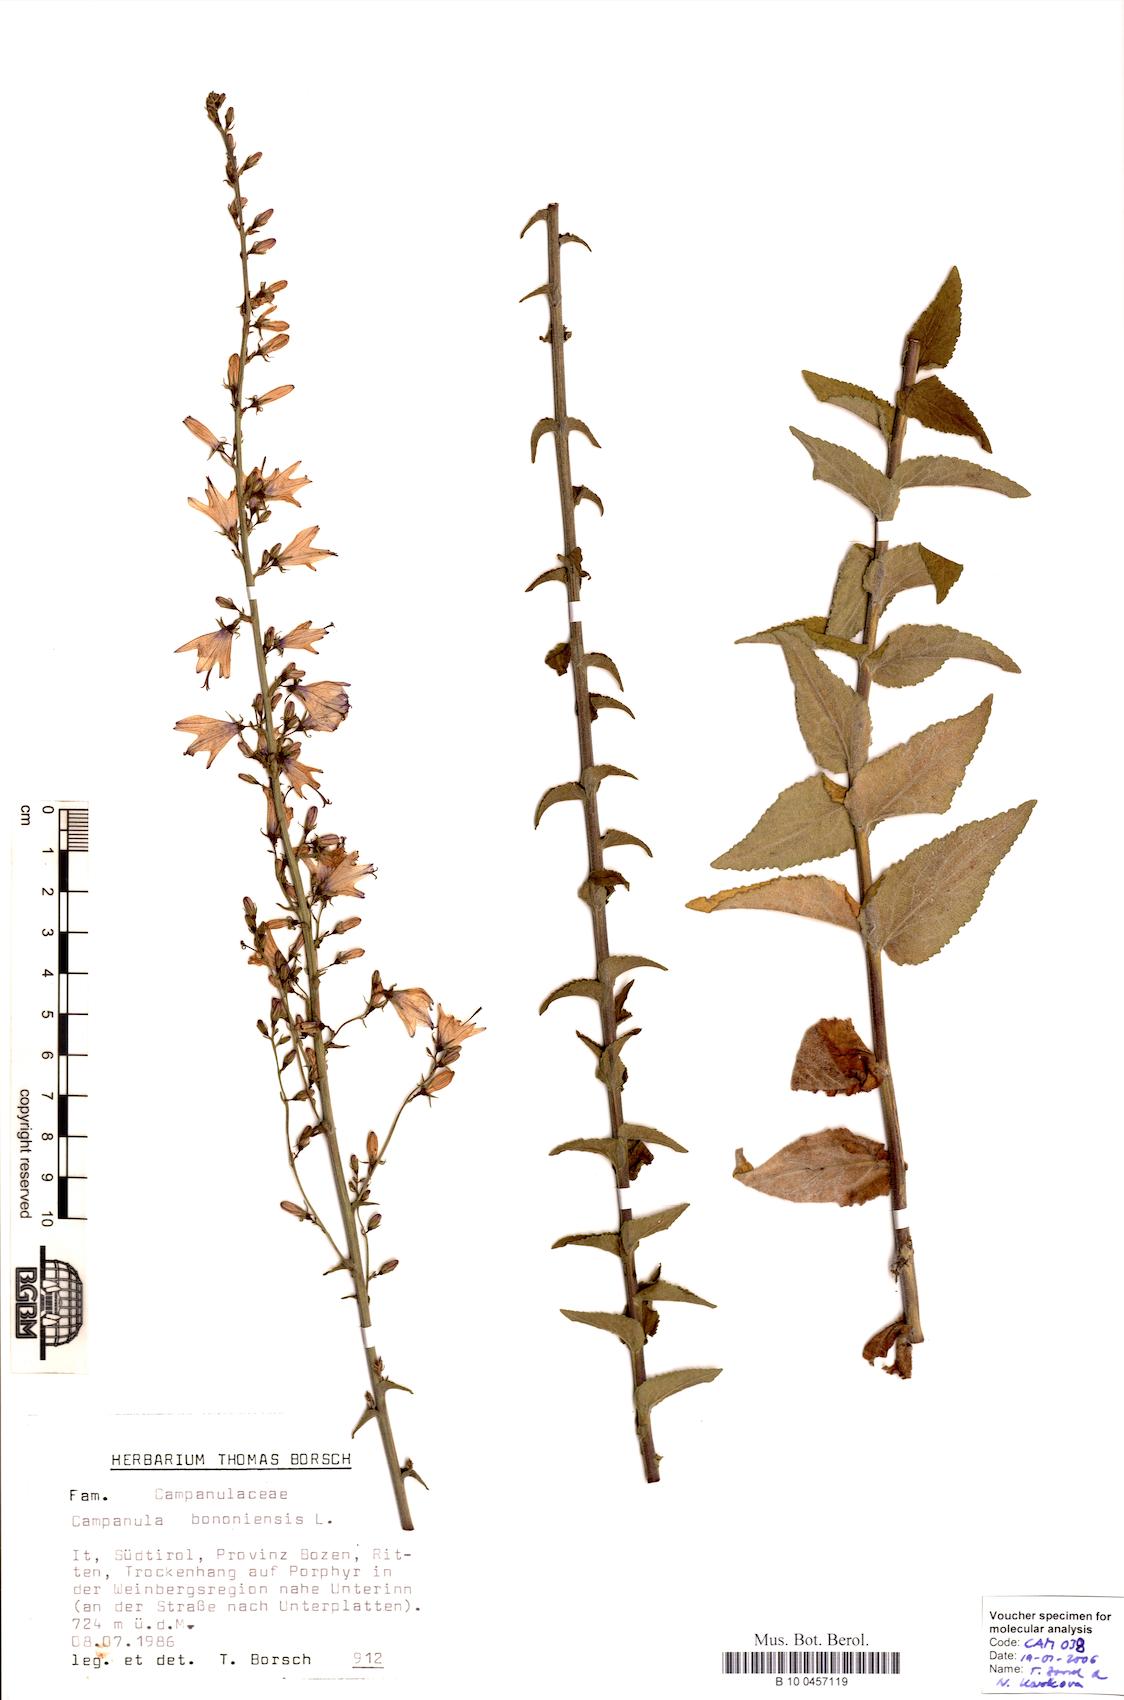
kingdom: Plantae
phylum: Tracheophyta
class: Magnoliopsida
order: Asterales
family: Campanulaceae
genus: Campanula
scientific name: Campanula bononiensis
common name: Pale bellflower
